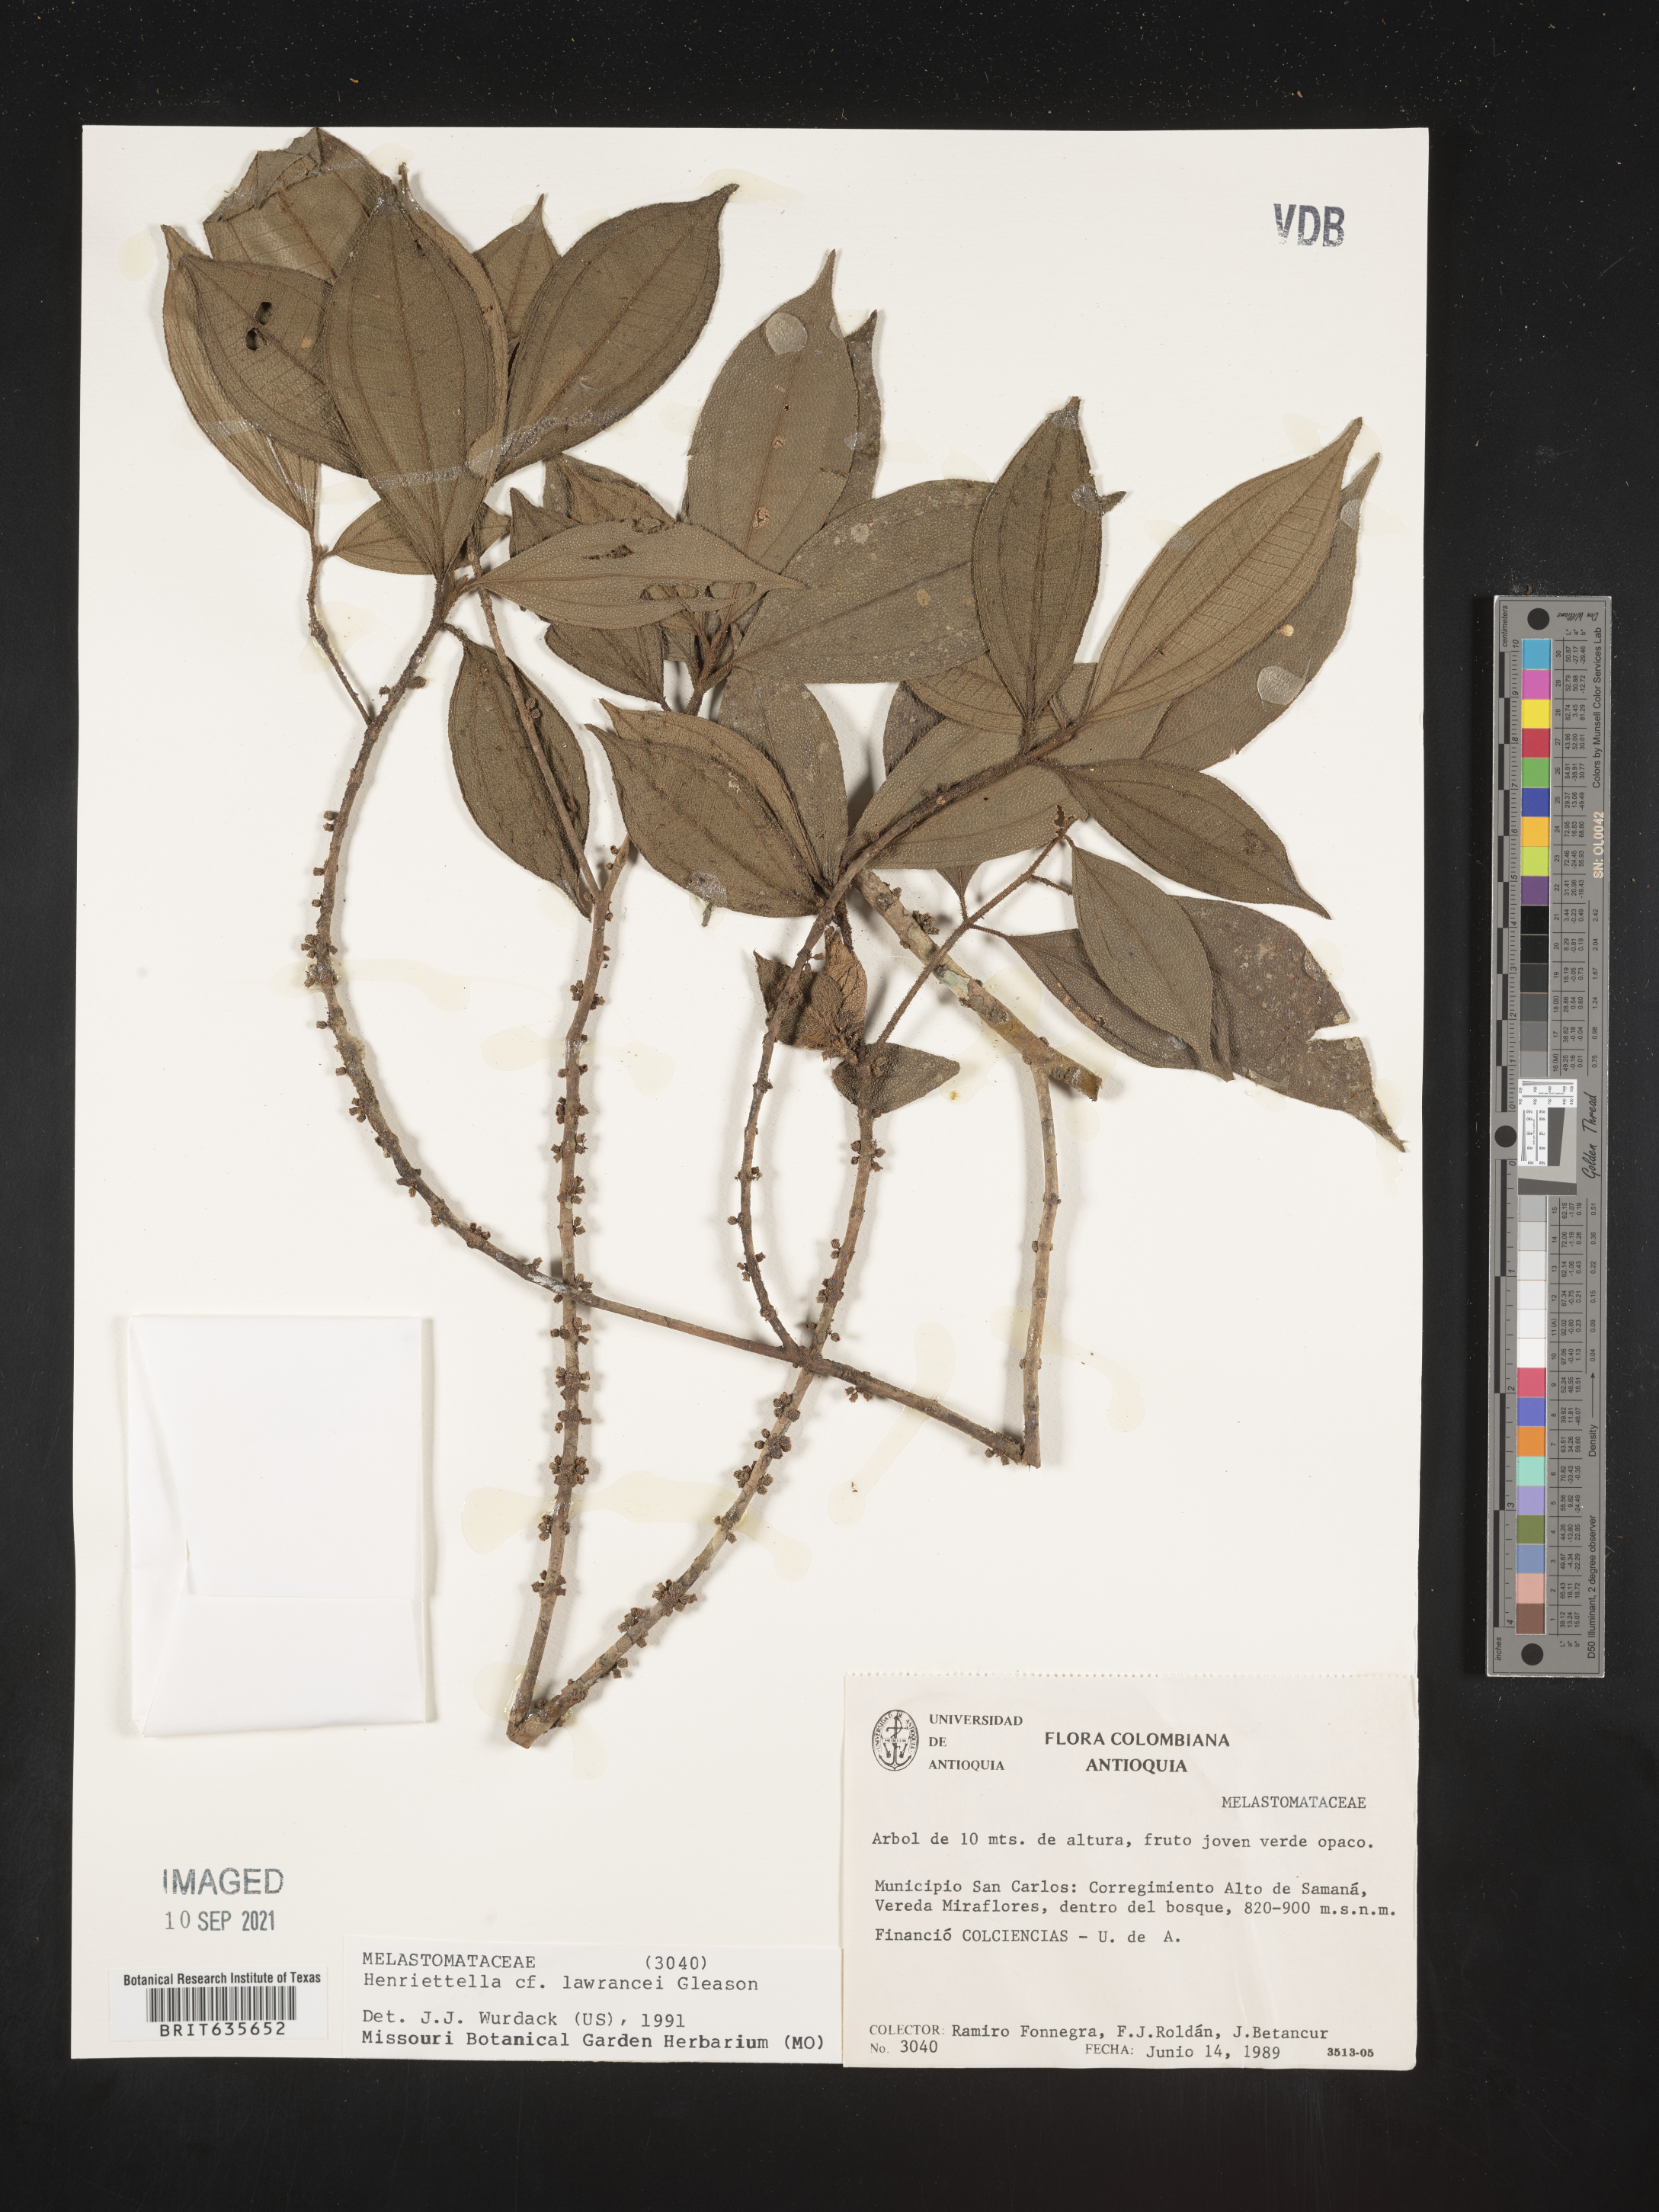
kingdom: Plantae
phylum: Tracheophyta
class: Magnoliopsida
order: Myrtales
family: Melastomataceae
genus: Henriettea
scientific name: Henriettea
